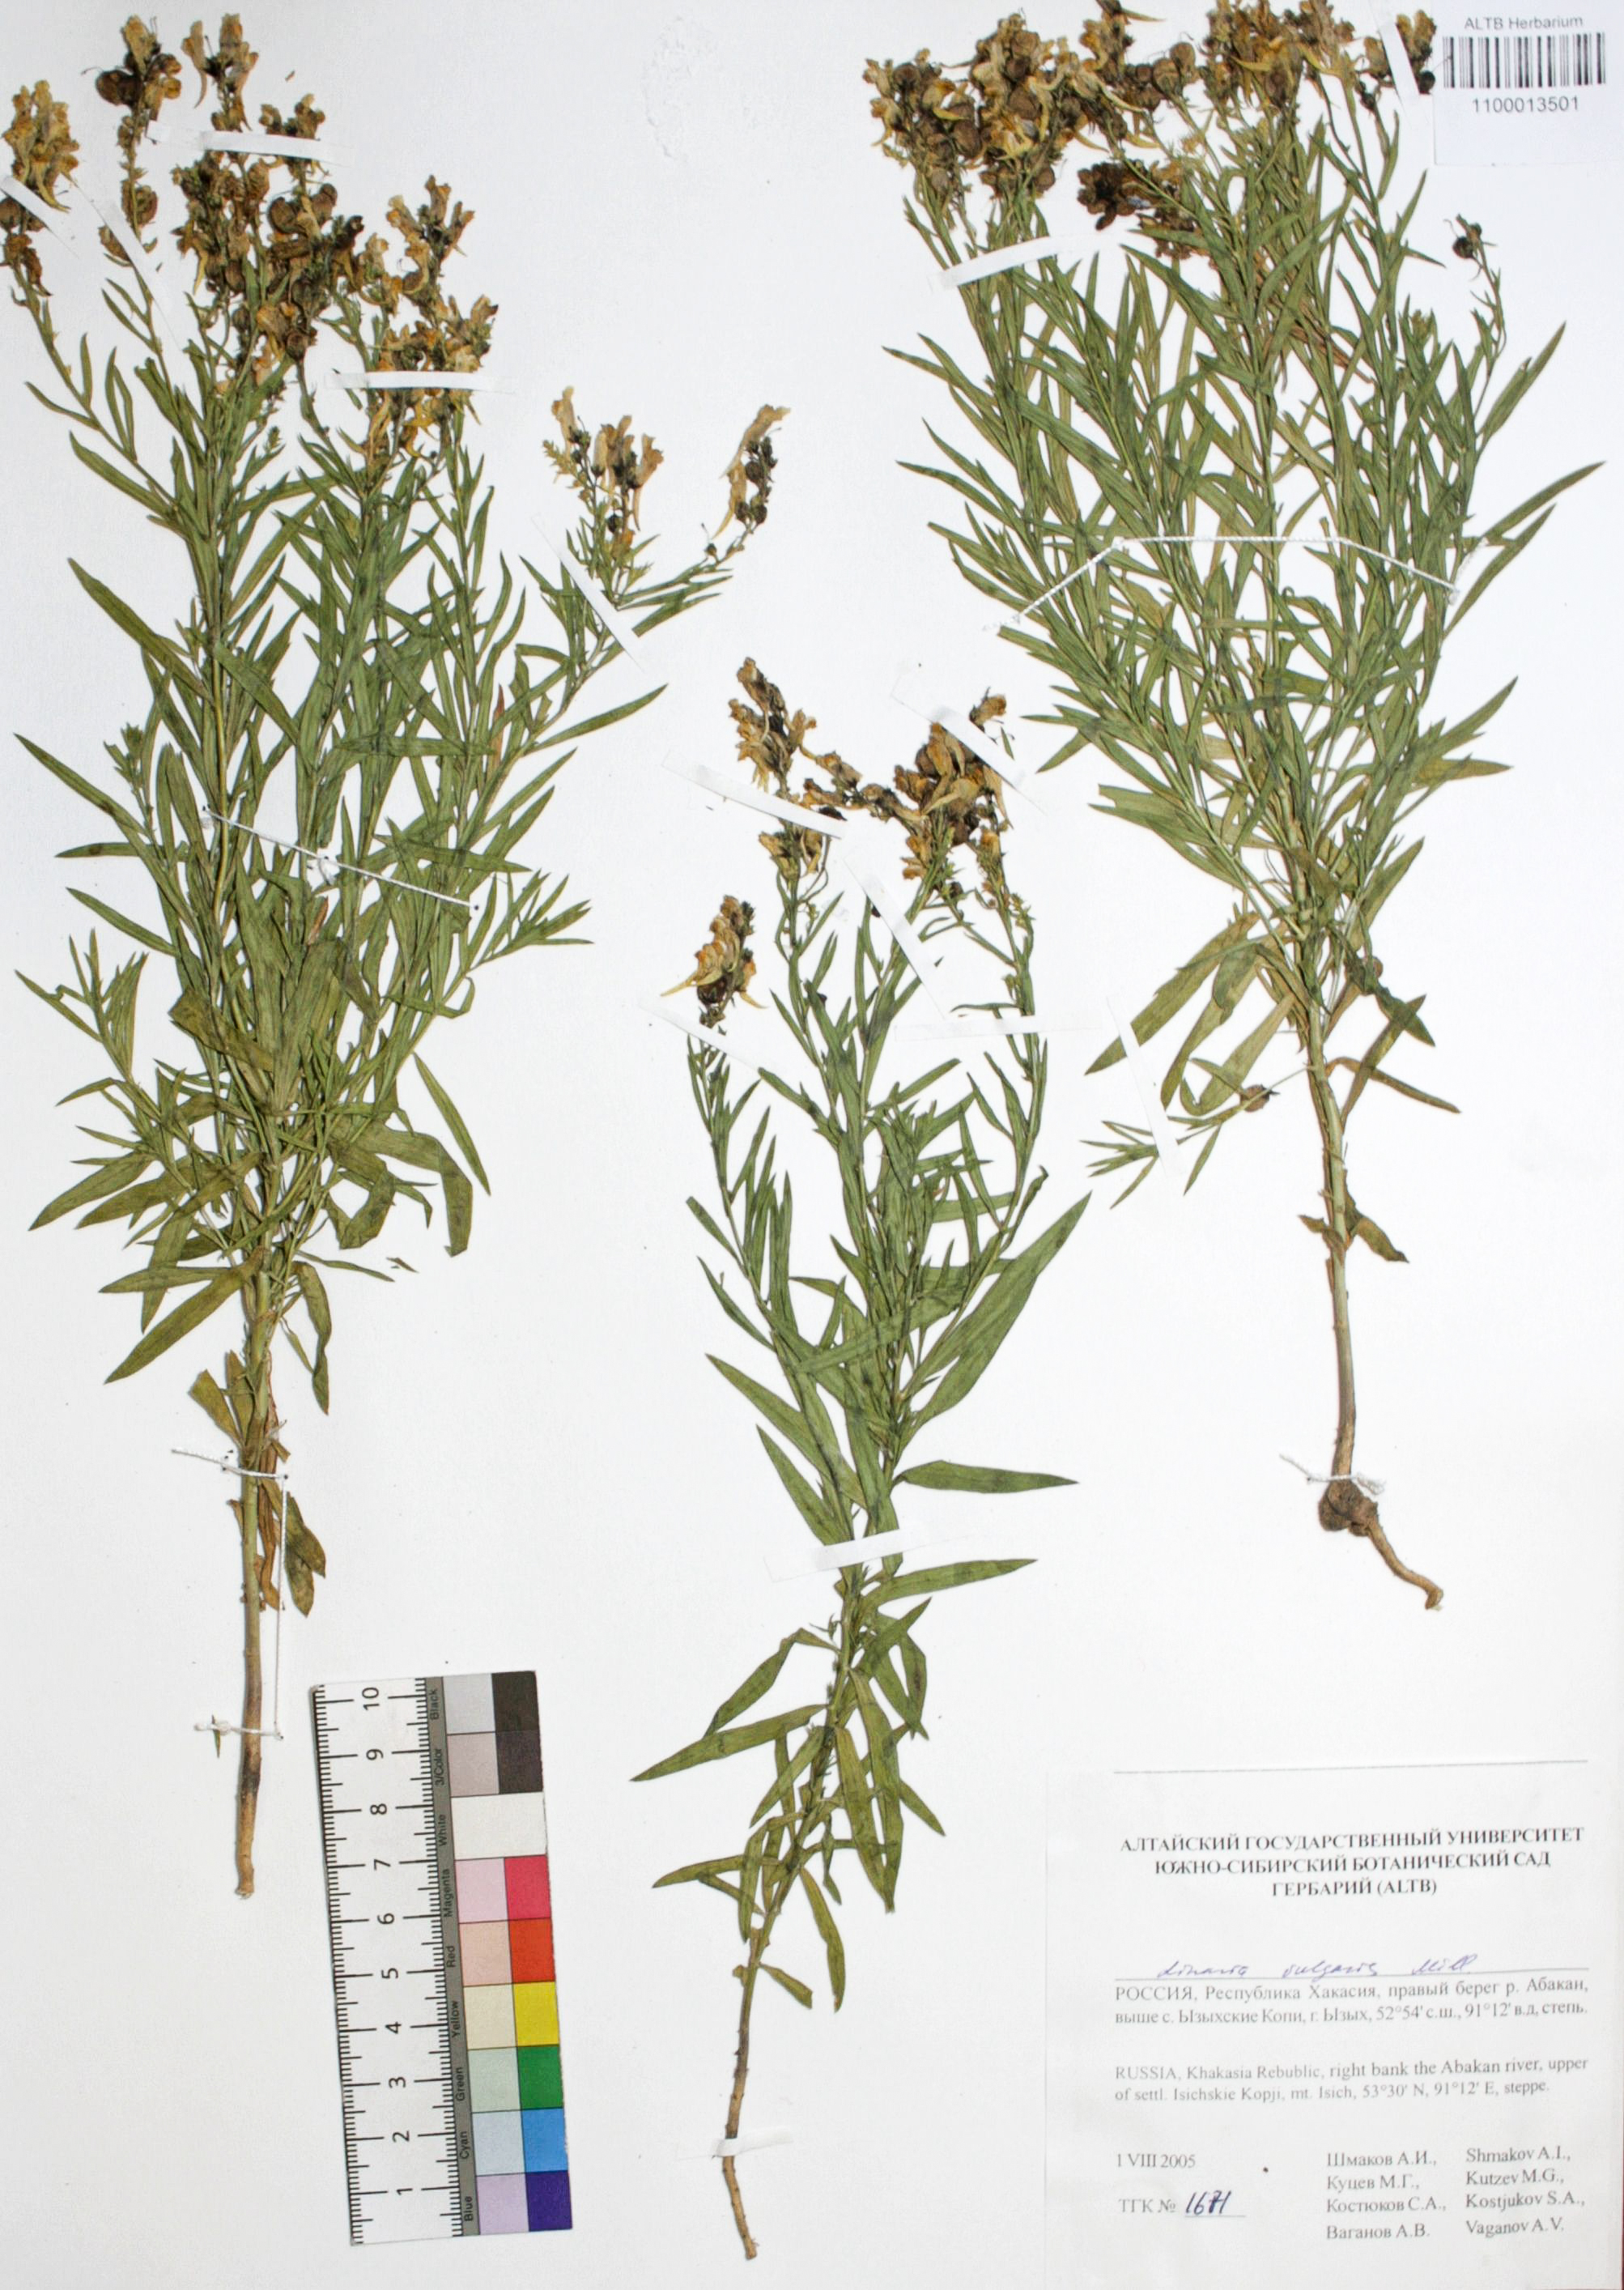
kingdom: Plantae
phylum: Tracheophyta
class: Magnoliopsida
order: Lamiales
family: Plantaginaceae
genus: Linaria
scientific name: Linaria vulgaris
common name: Butter and eggs
